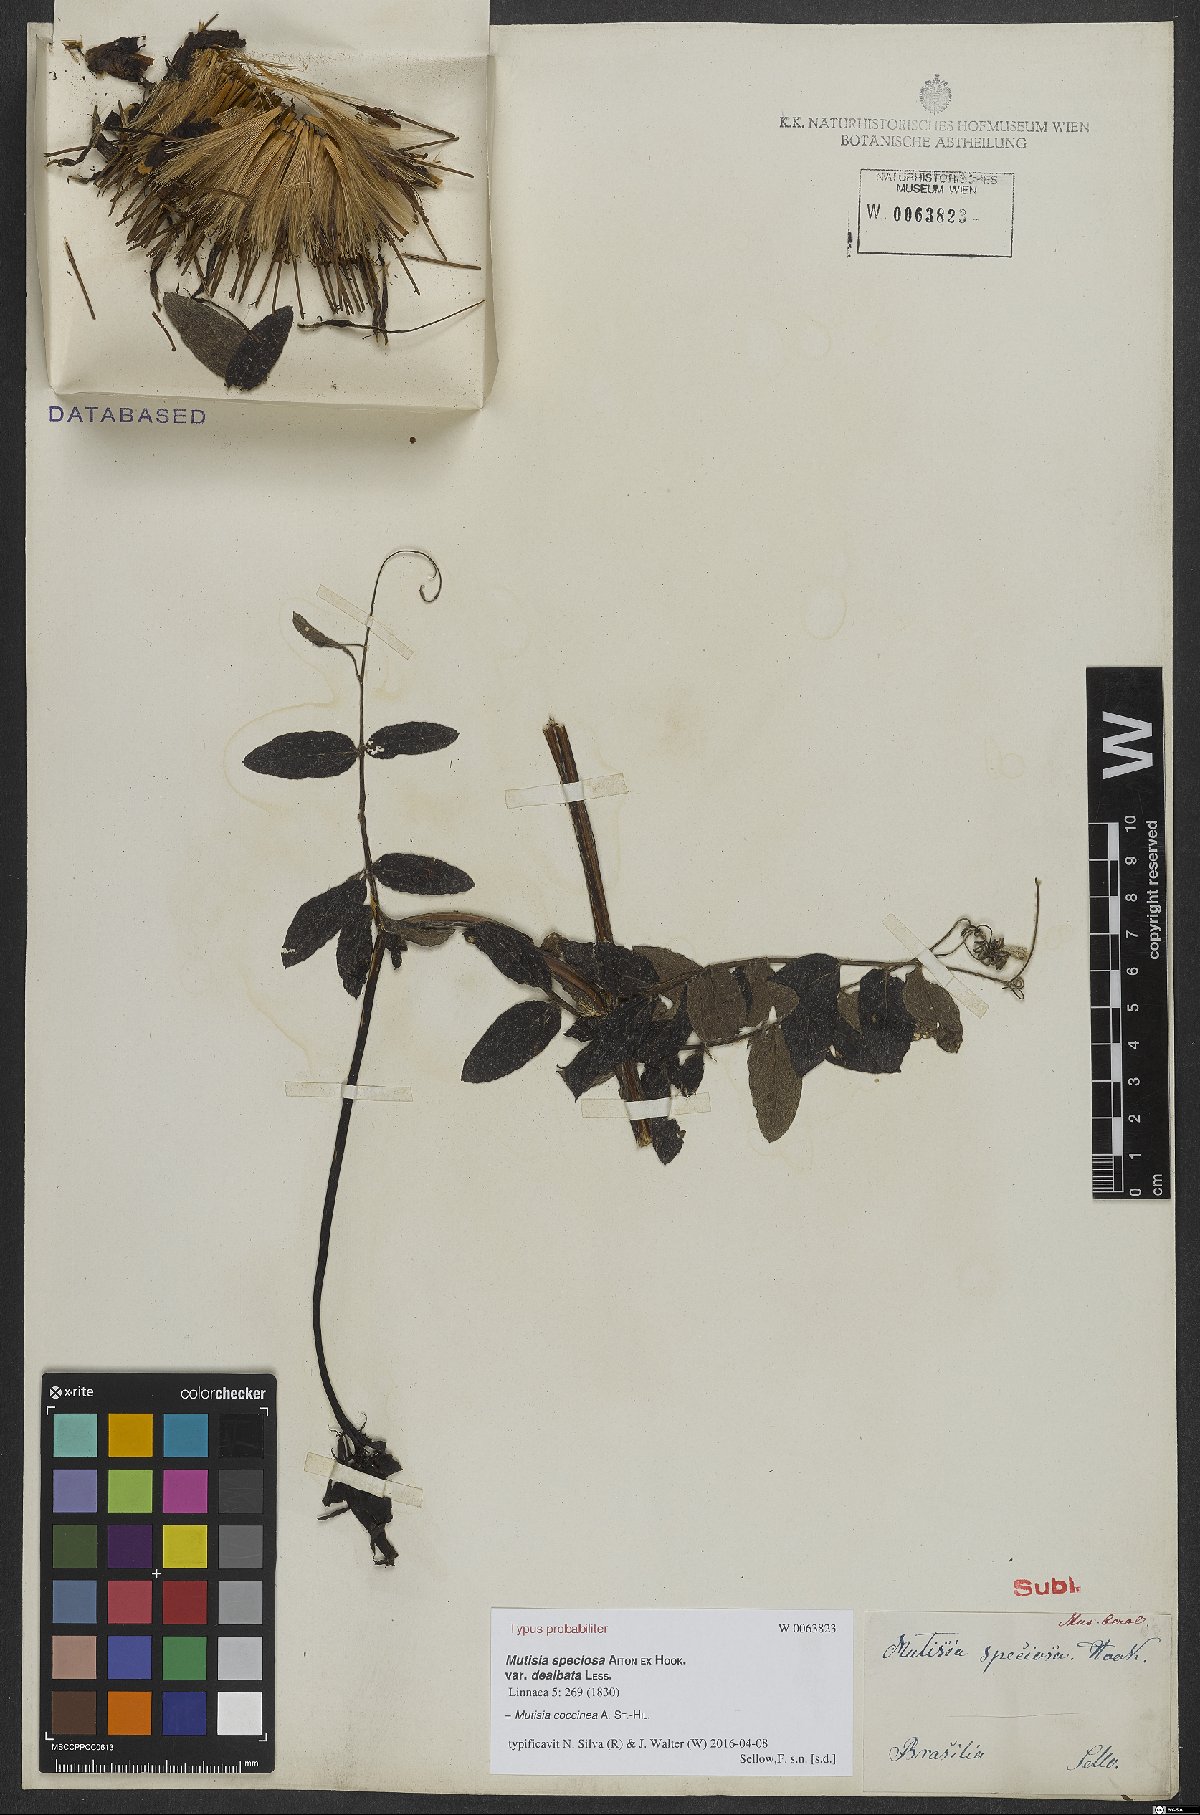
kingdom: Plantae
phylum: Tracheophyta
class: Magnoliopsida
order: Asterales
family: Asteraceae
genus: Mutisia
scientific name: Mutisia coccinea
